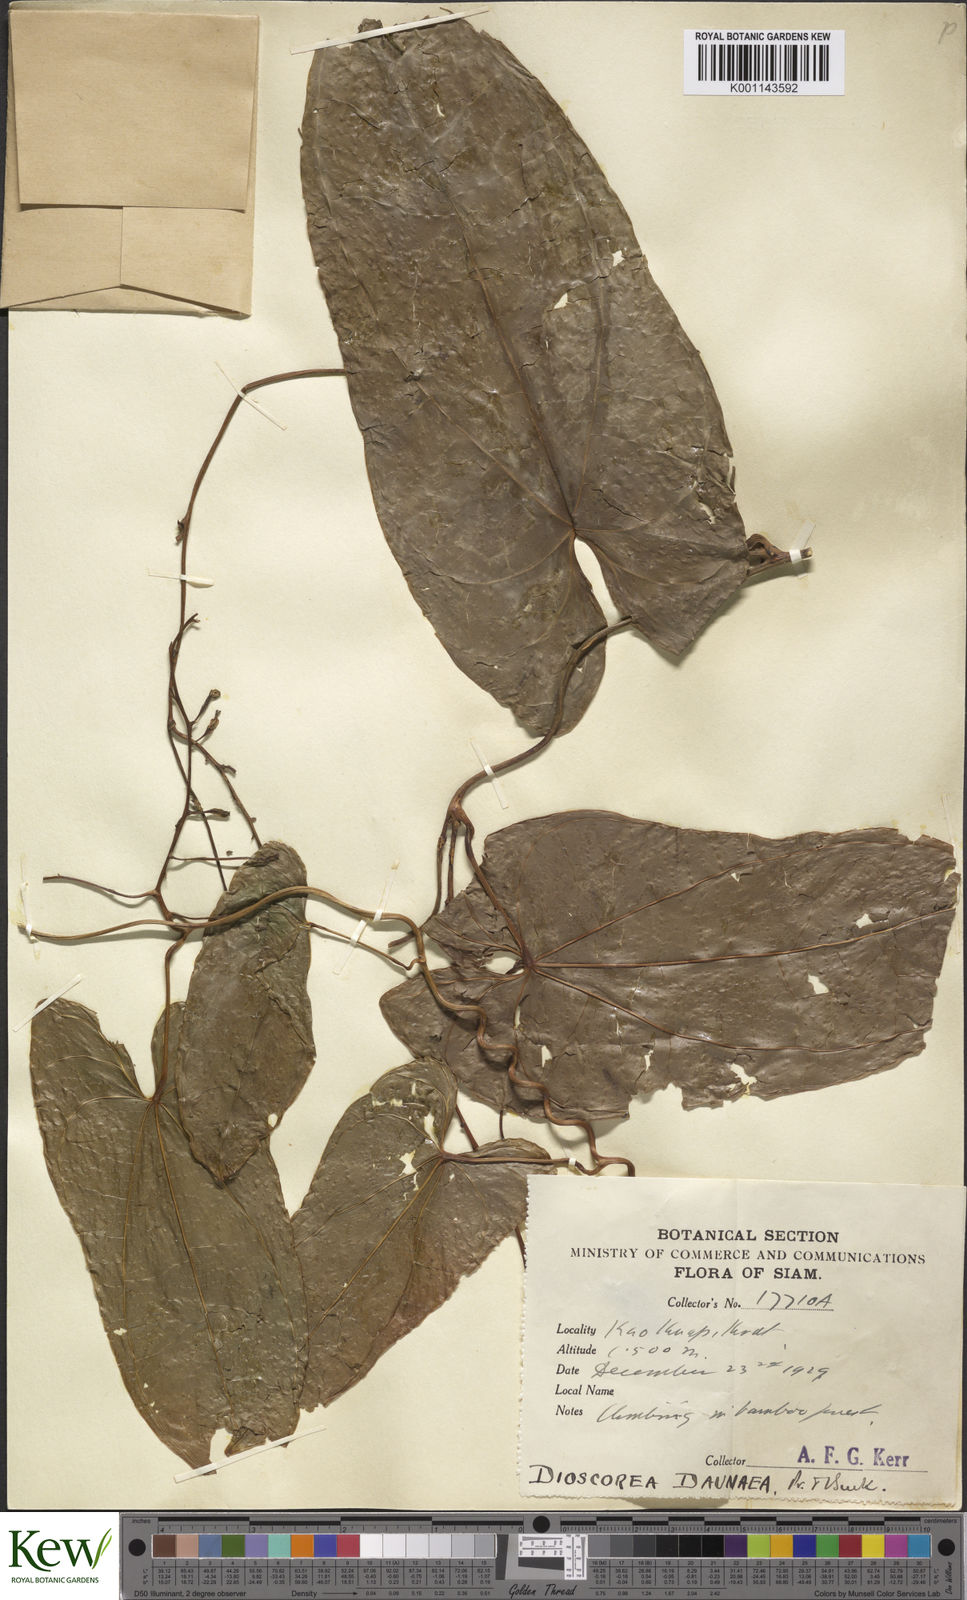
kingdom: Plantae
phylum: Tracheophyta
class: Liliopsida
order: Dioscoreales
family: Dioscoreaceae
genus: Dioscorea
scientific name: Dioscorea daunea
